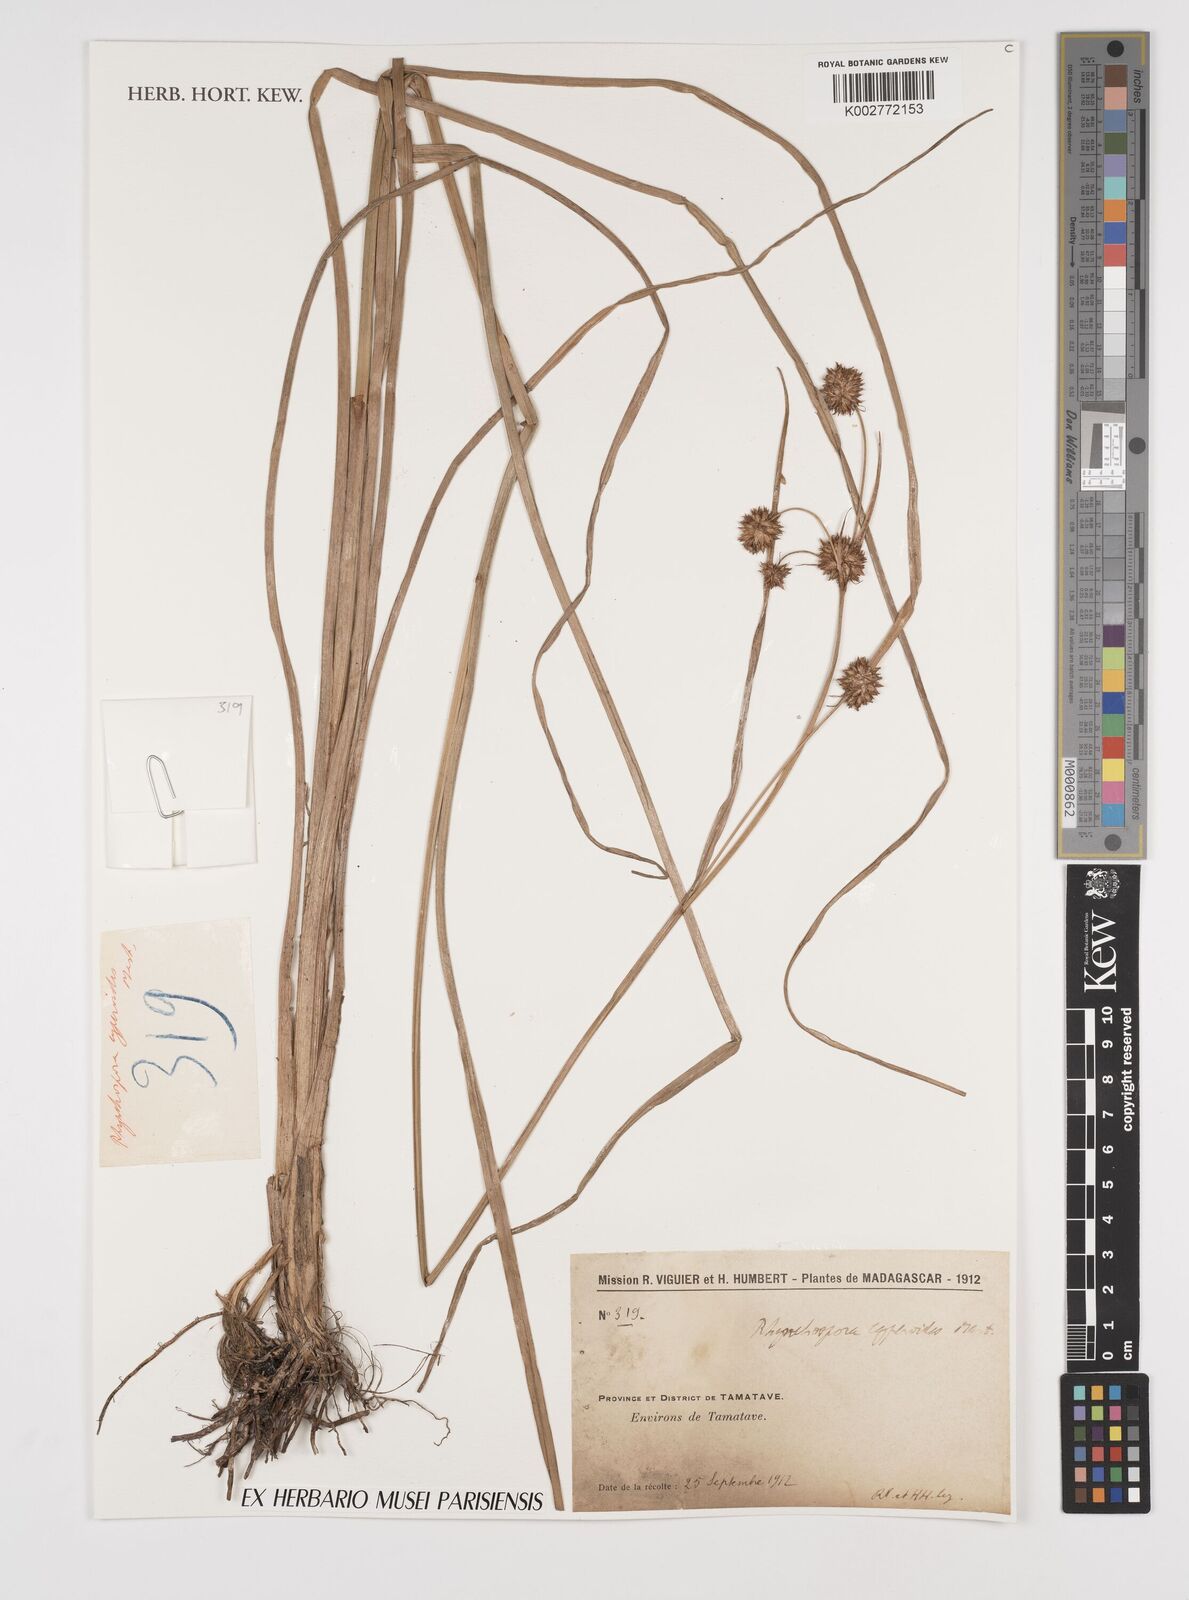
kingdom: Plantae
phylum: Tracheophyta
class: Liliopsida
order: Poales
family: Cyperaceae
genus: Rhynchospora
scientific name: Rhynchospora holoschoenoides
